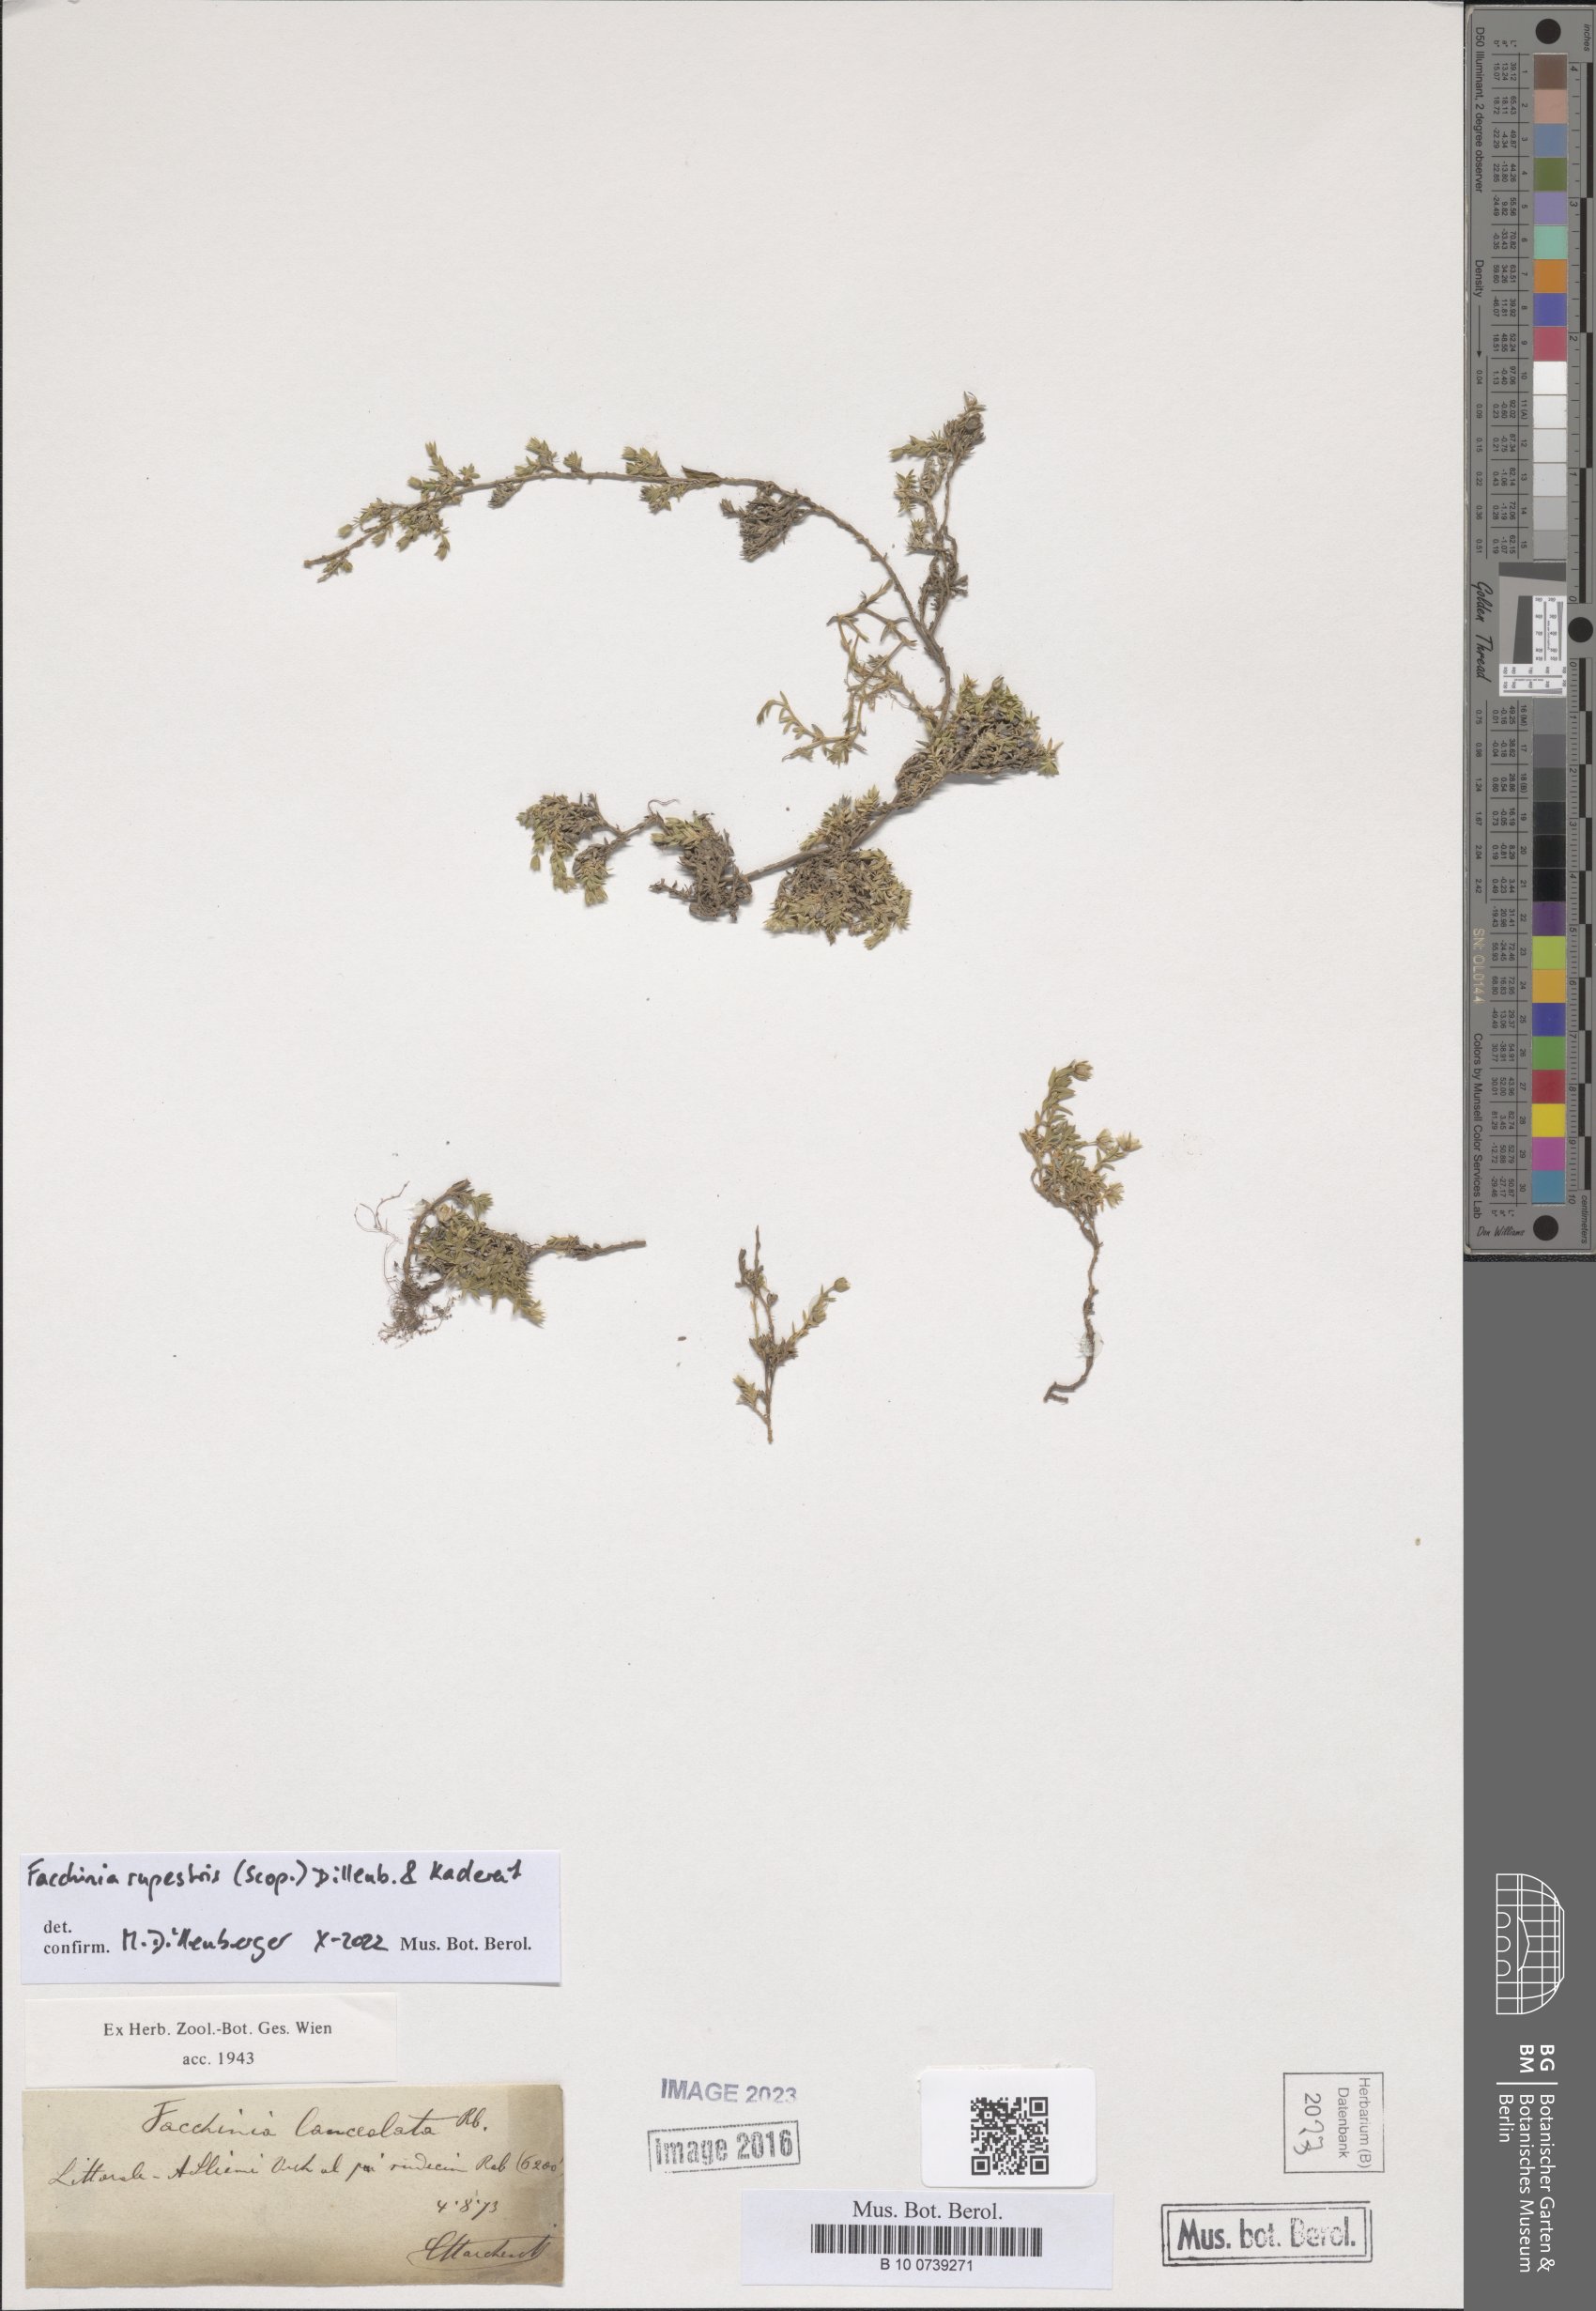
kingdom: Plantae
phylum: Tracheophyta
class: Magnoliopsida
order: Caryophyllales
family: Caryophyllaceae
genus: Facchinia
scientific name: Facchinia rupestris
